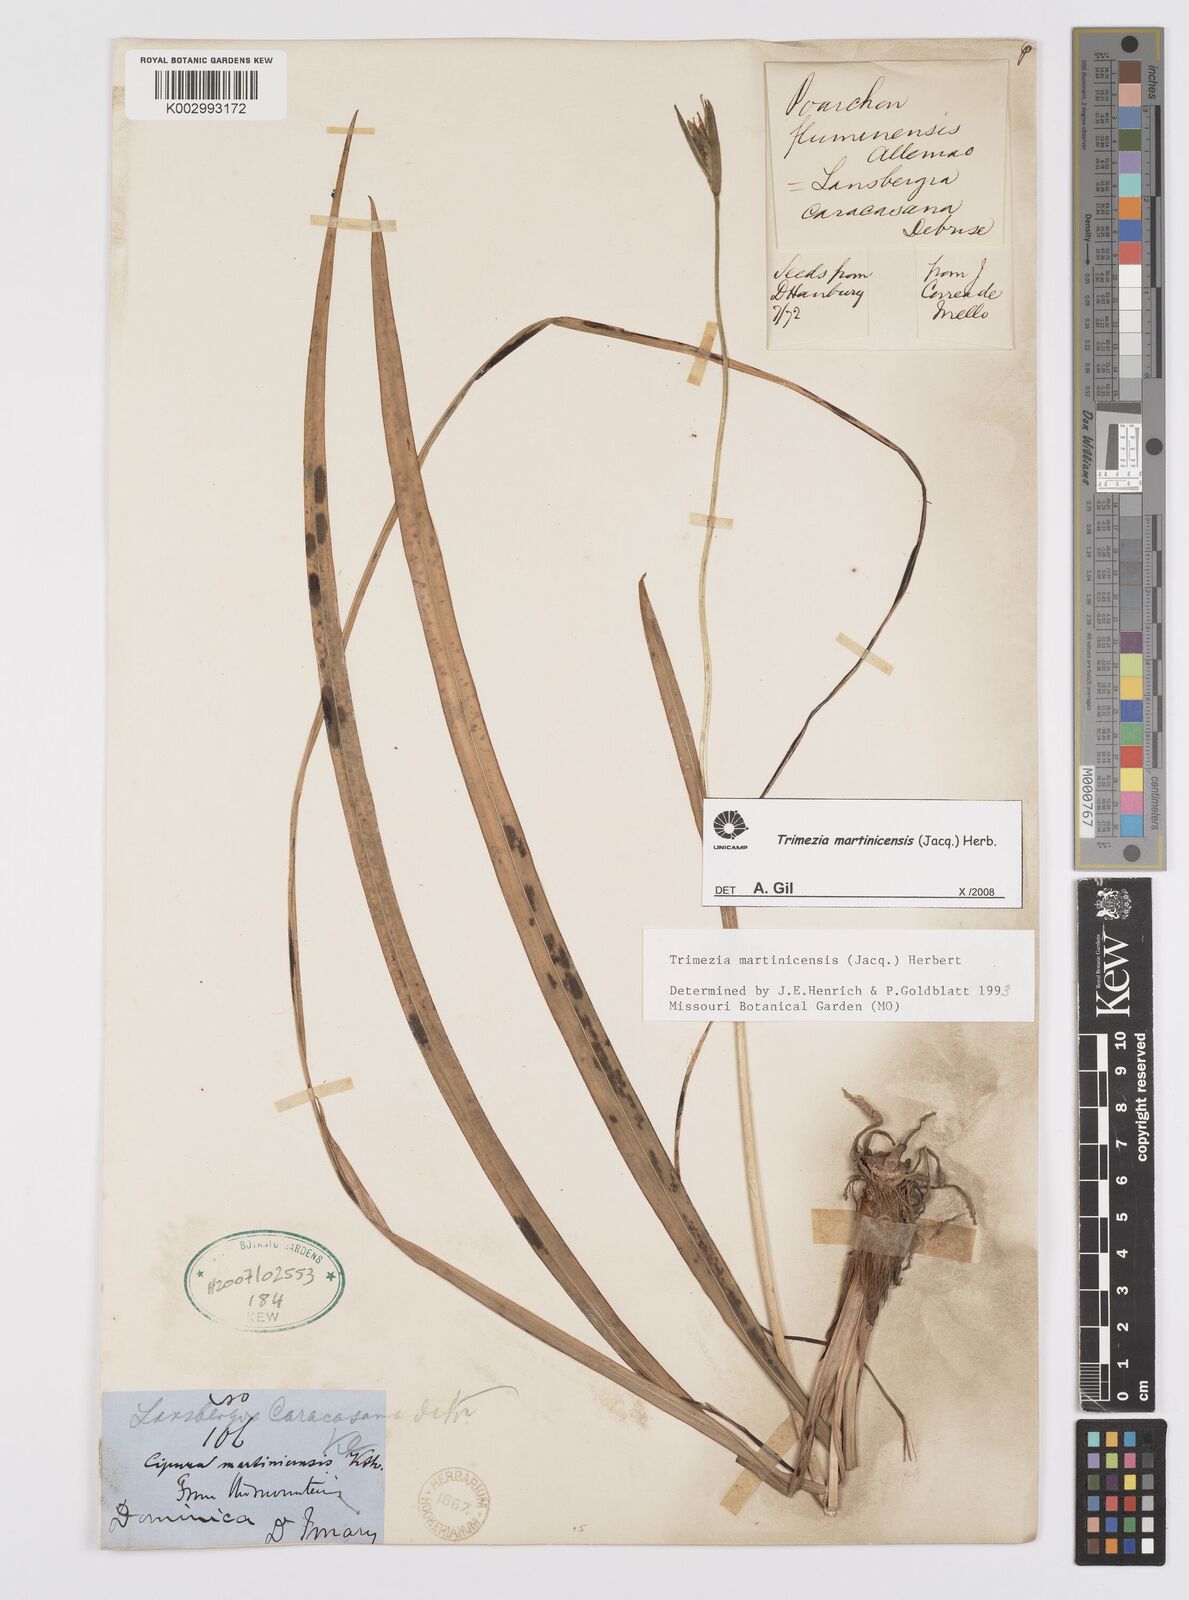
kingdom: Plantae
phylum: Tracheophyta
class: Liliopsida
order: Asparagales
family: Iridaceae
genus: Trimezia
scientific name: Trimezia martinicensis
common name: Martinique trimezia
